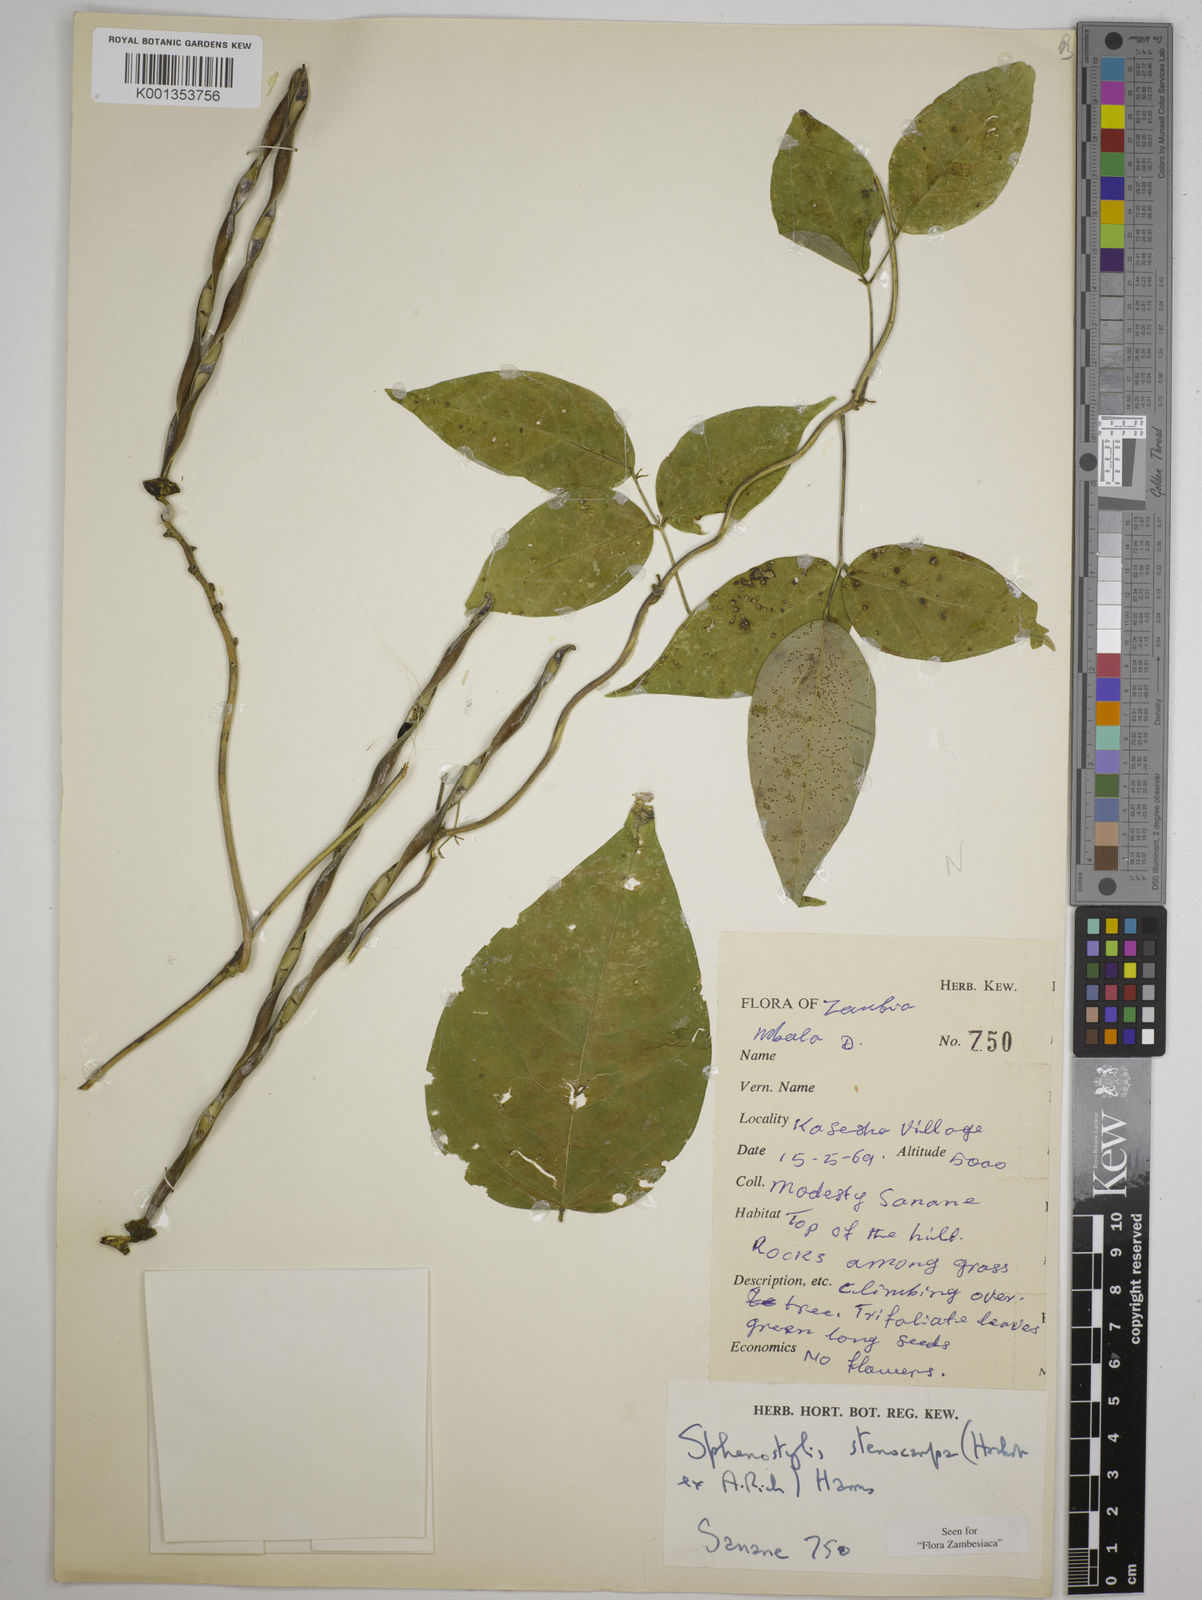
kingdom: Plantae
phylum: Tracheophyta
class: Magnoliopsida
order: Fabales
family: Fabaceae
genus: Sphenostylis
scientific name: Sphenostylis stenocarpa
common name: Yam-pea
